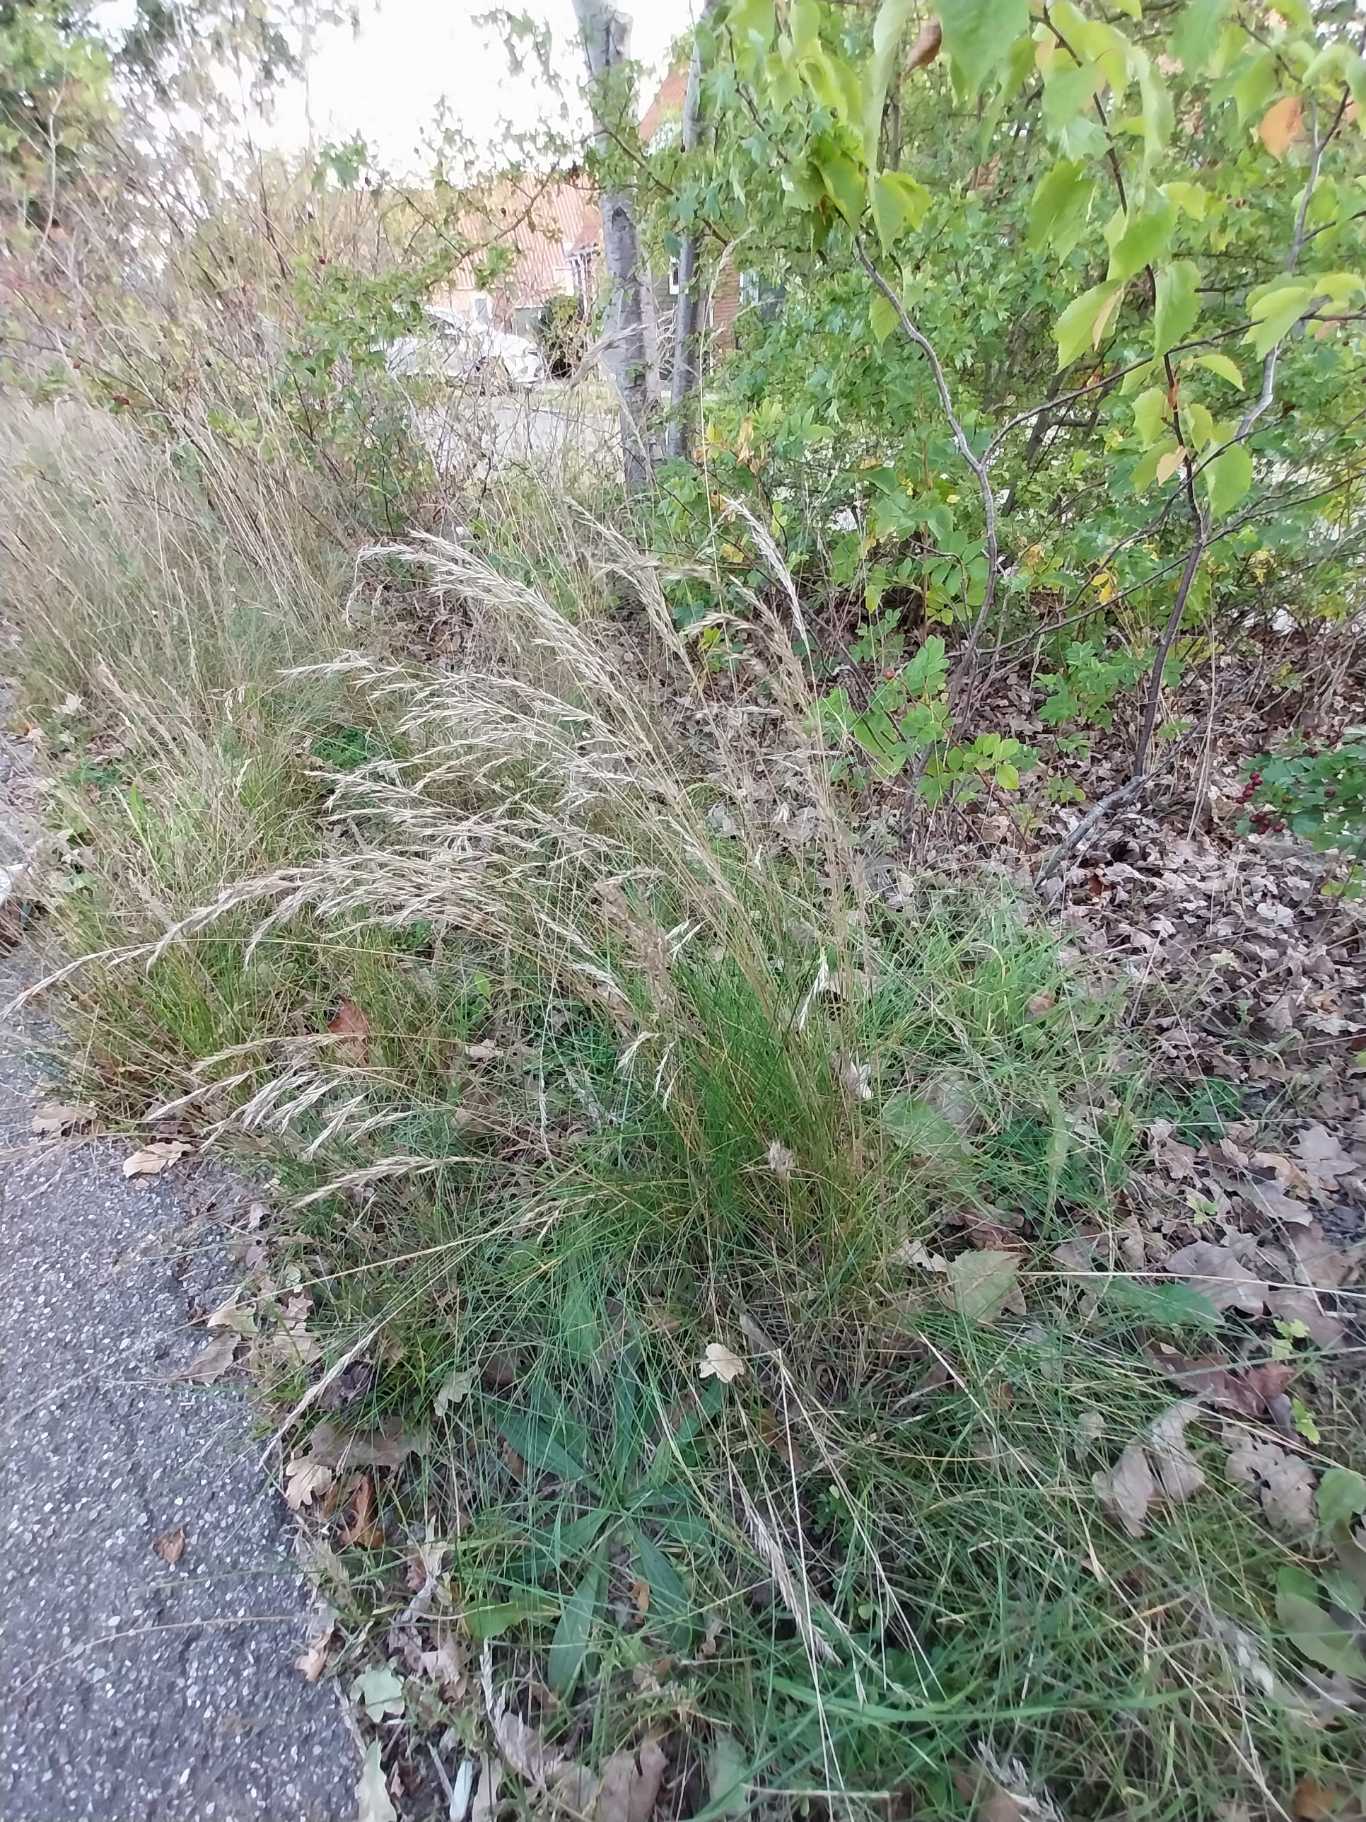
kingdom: Plantae
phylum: Tracheophyta
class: Liliopsida
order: Poales
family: Poaceae
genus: Festuca
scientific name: Festuca rubra
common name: Rød svingel
